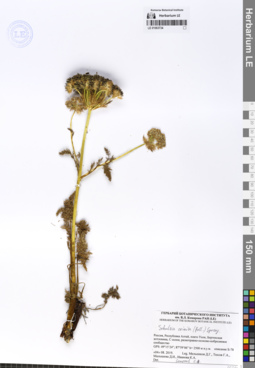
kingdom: Plantae
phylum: Tracheophyta
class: Magnoliopsida
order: Apiales
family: Apiaceae
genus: Schulzia
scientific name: Schulzia crinita
